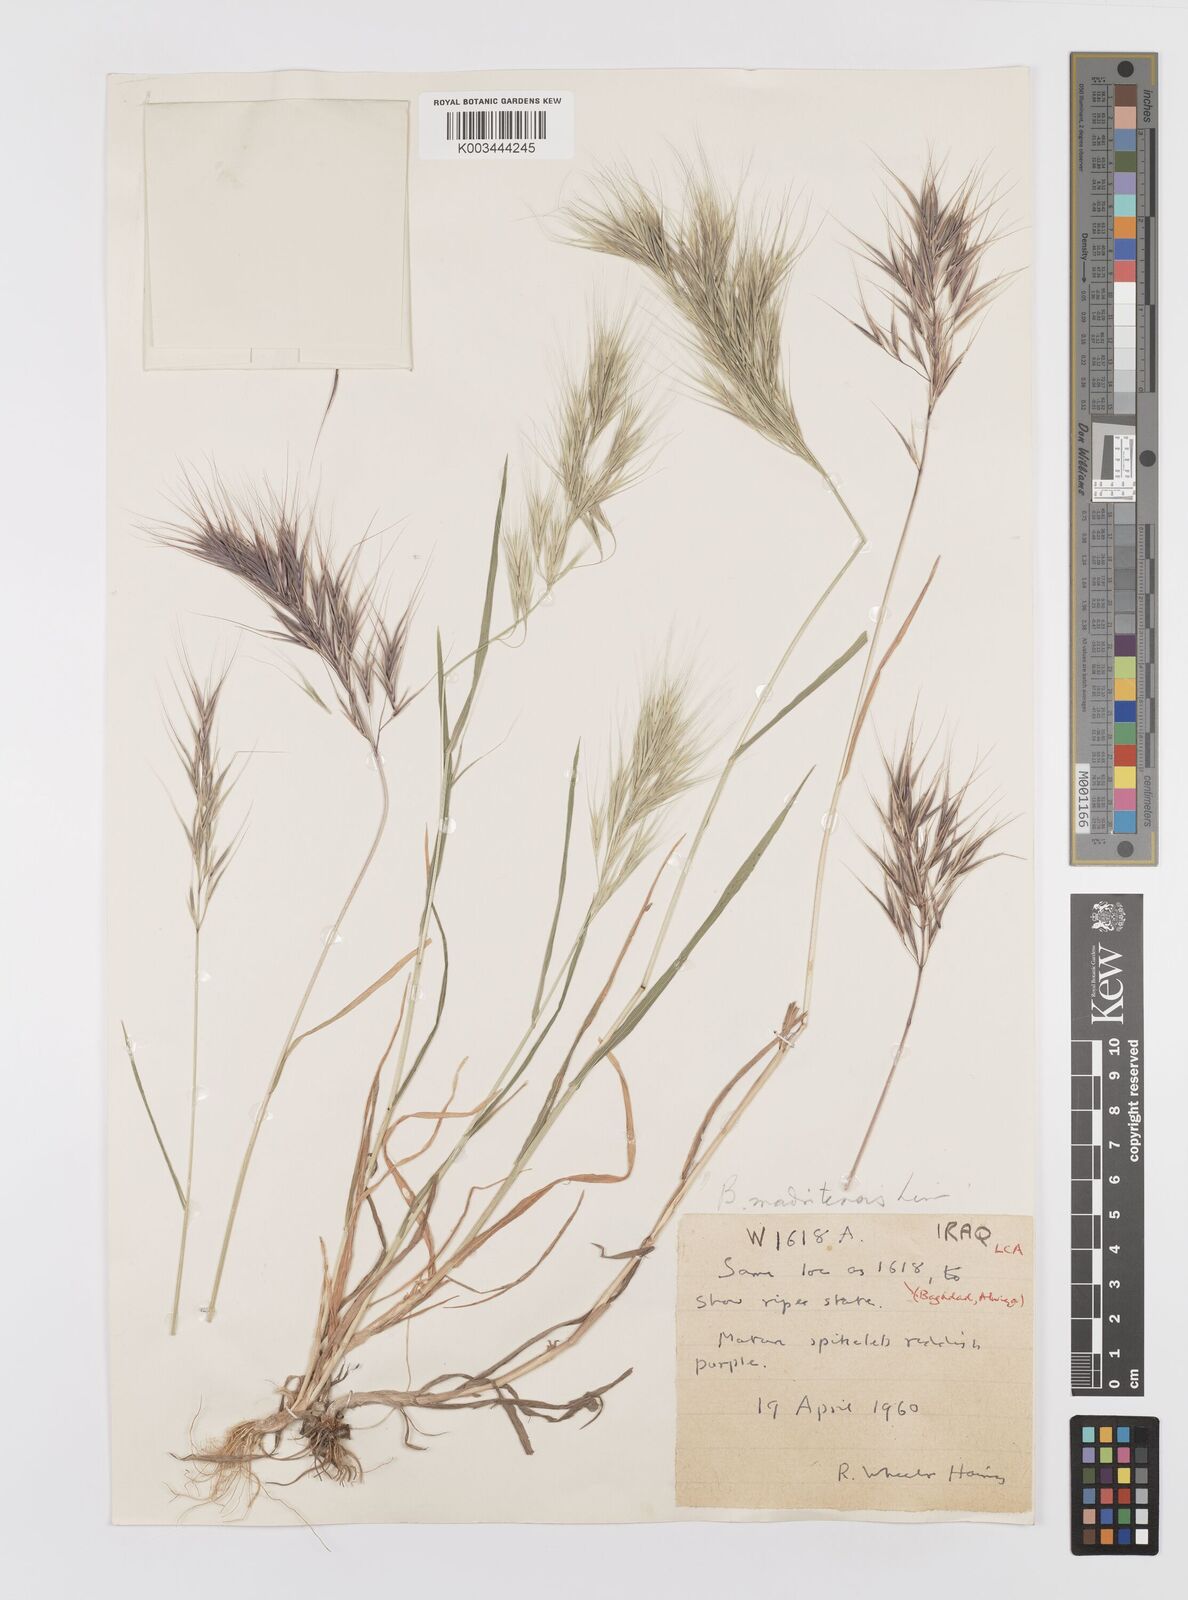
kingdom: Plantae
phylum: Tracheophyta
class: Liliopsida
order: Poales
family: Poaceae
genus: Bromus
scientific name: Bromus madritensis
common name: Compact brome
